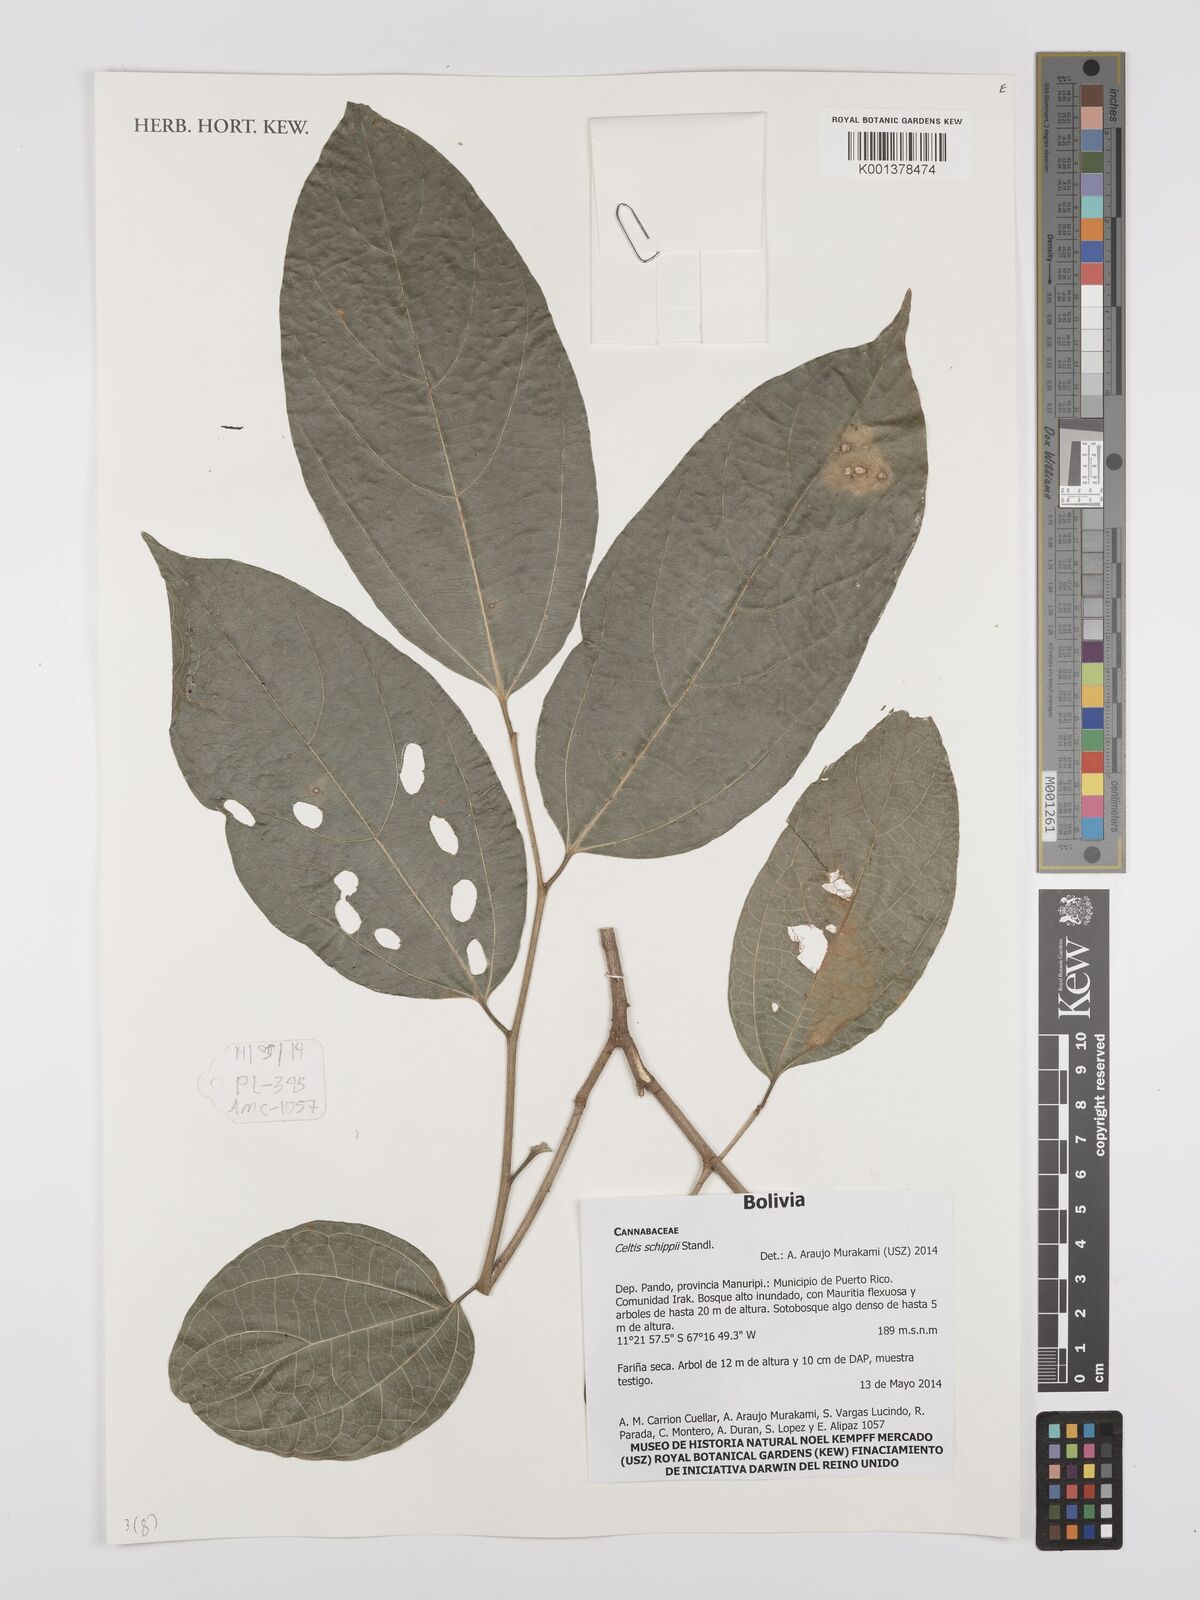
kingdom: Plantae
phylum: Tracheophyta
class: Magnoliopsida
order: Rosales
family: Cannabaceae
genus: Celtis
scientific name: Celtis schippii
